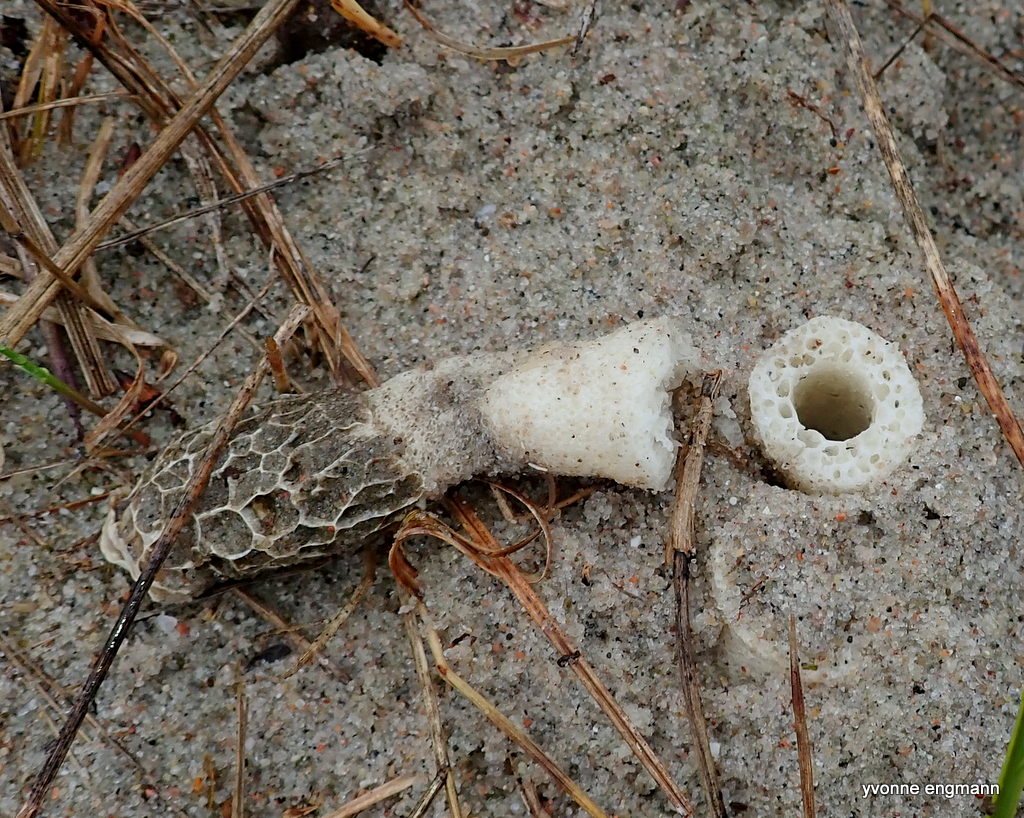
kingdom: Fungi
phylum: Basidiomycota
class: Agaricomycetes
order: Phallales
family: Phallaceae
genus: Phallus
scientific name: Phallus hadriani
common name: sand-stinksvamp
